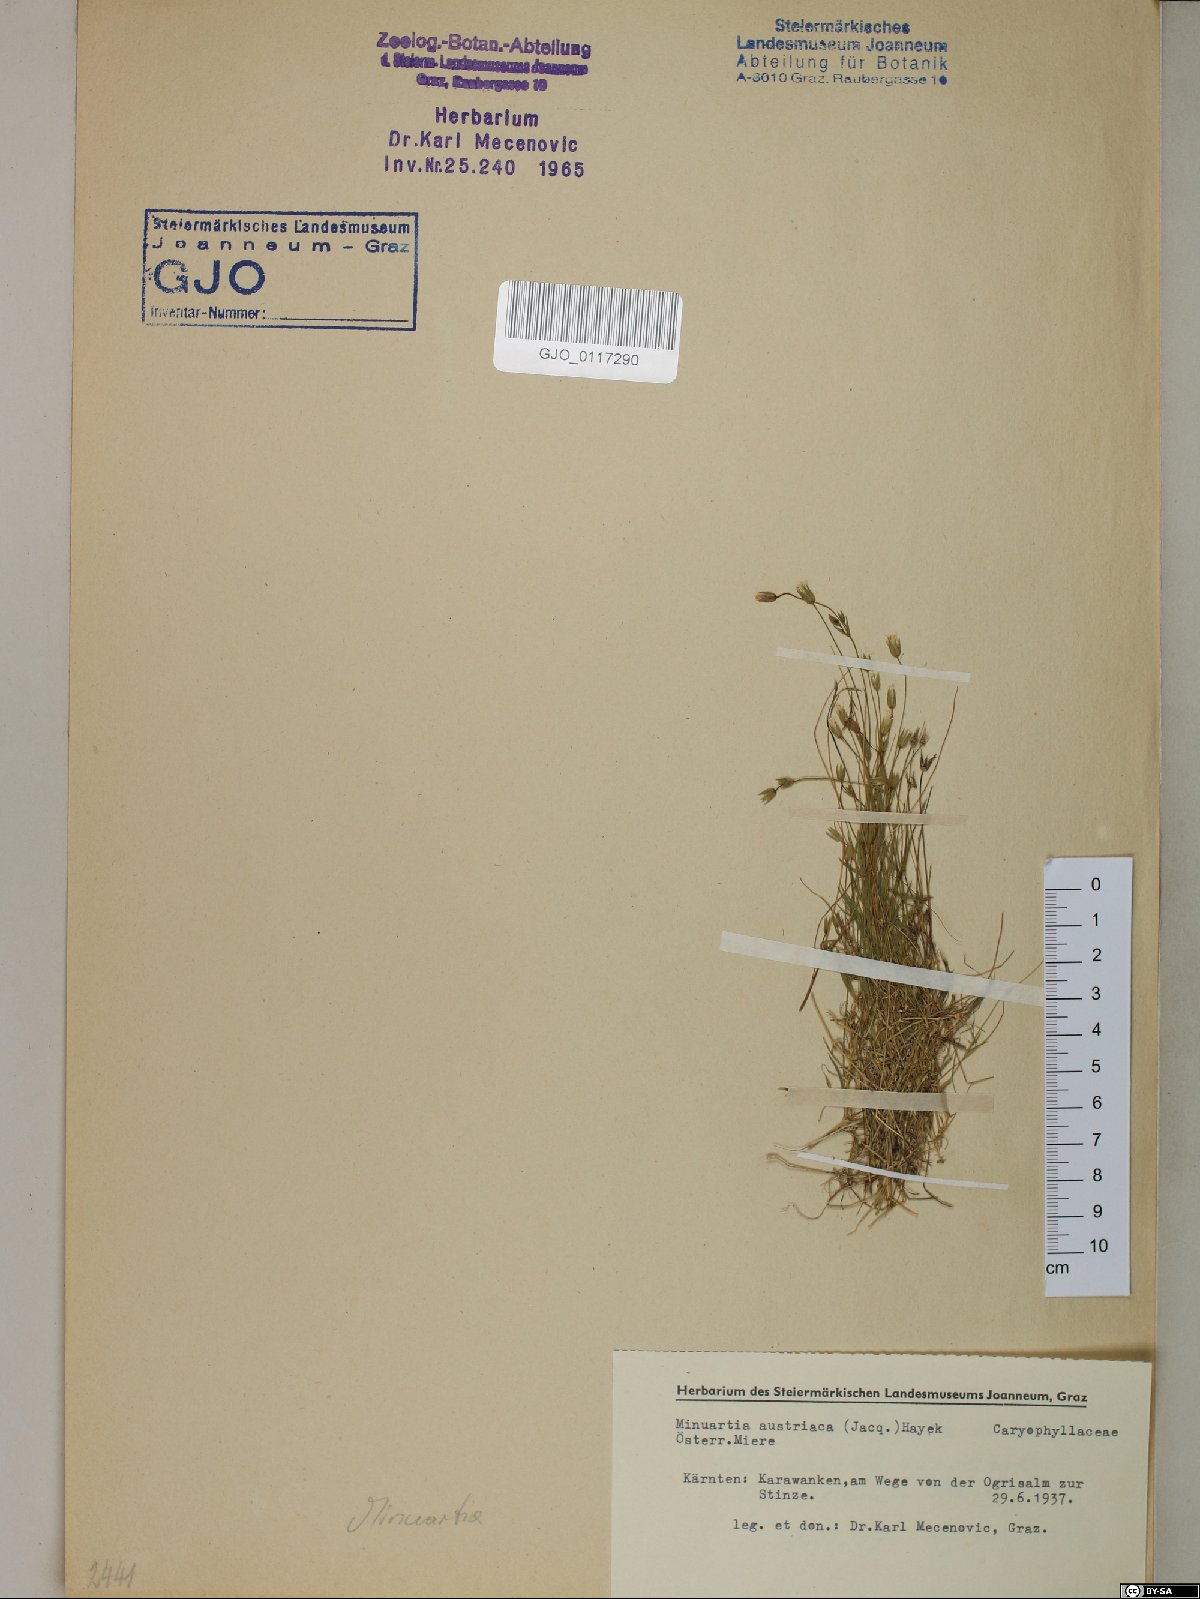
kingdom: Plantae
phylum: Tracheophyta
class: Magnoliopsida
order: Caryophyllales
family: Caryophyllaceae
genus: Sabulina
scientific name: Sabulina austriaca
